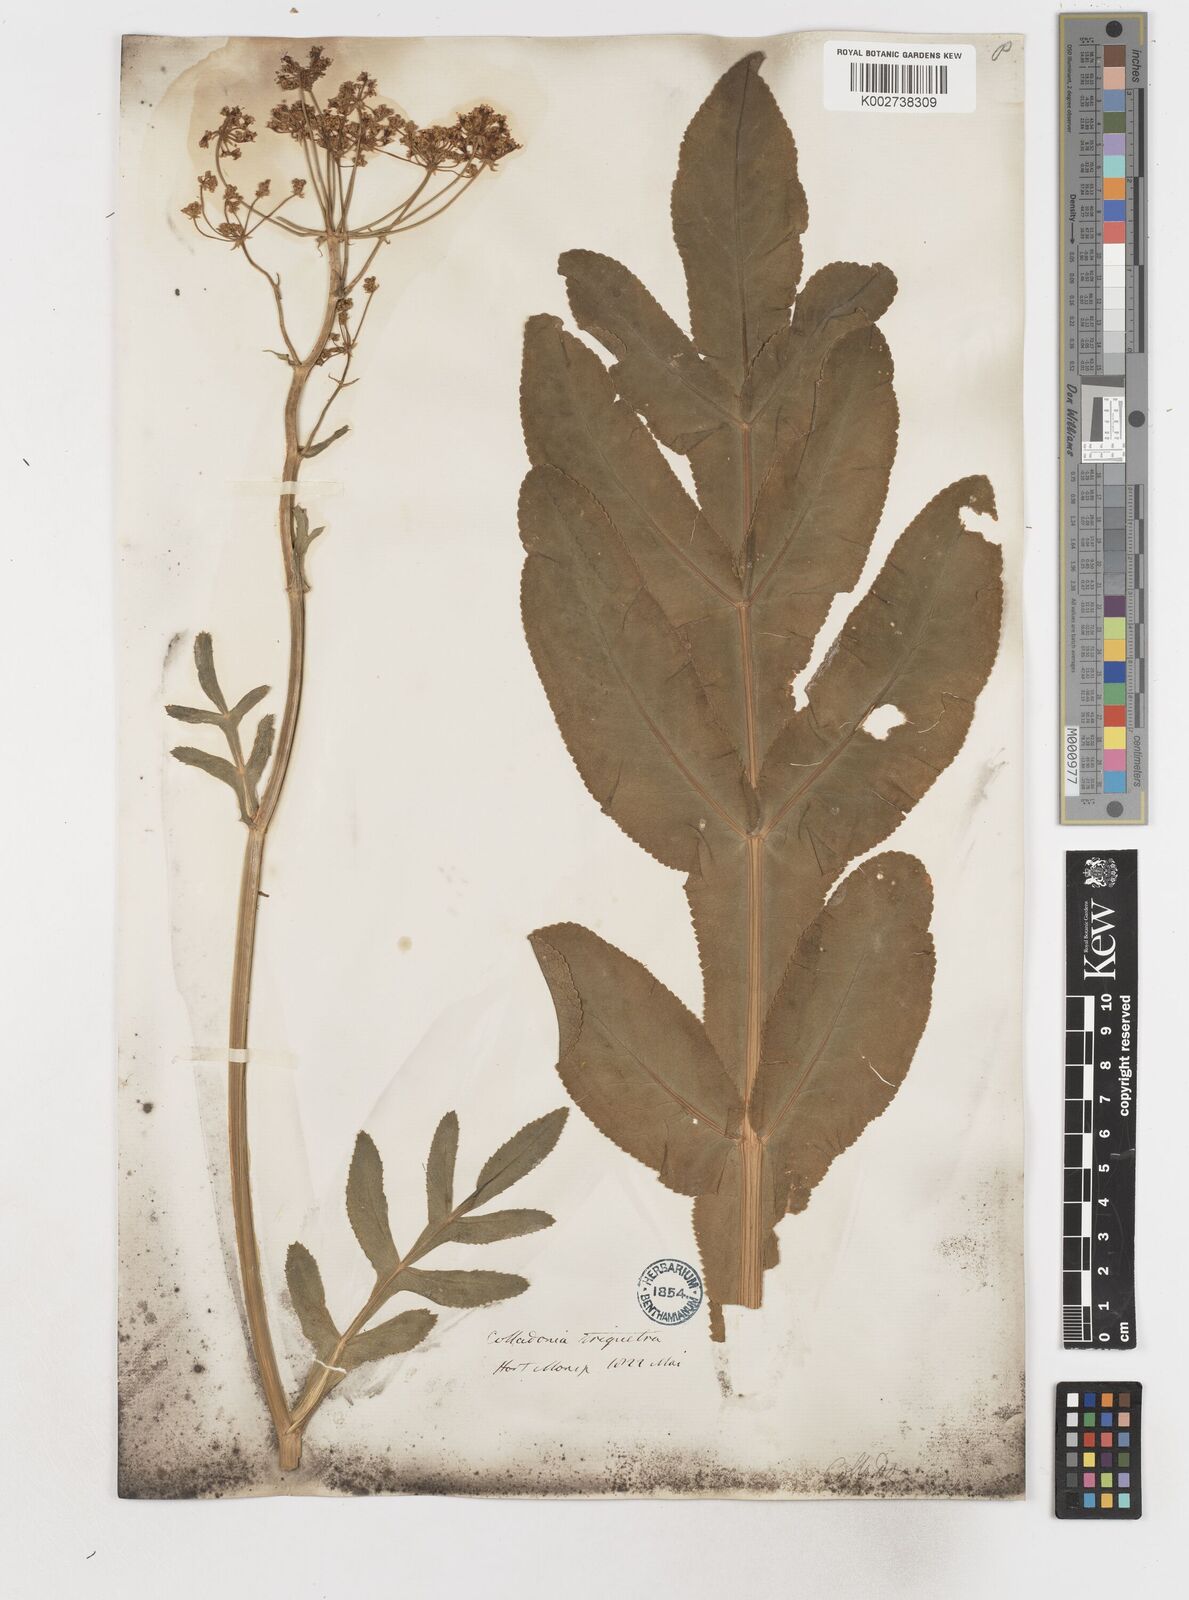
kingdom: Plantae
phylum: Tracheophyta
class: Magnoliopsida
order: Apiales
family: Apiaceae
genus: Heptaptera
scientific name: Heptaptera triquetra
